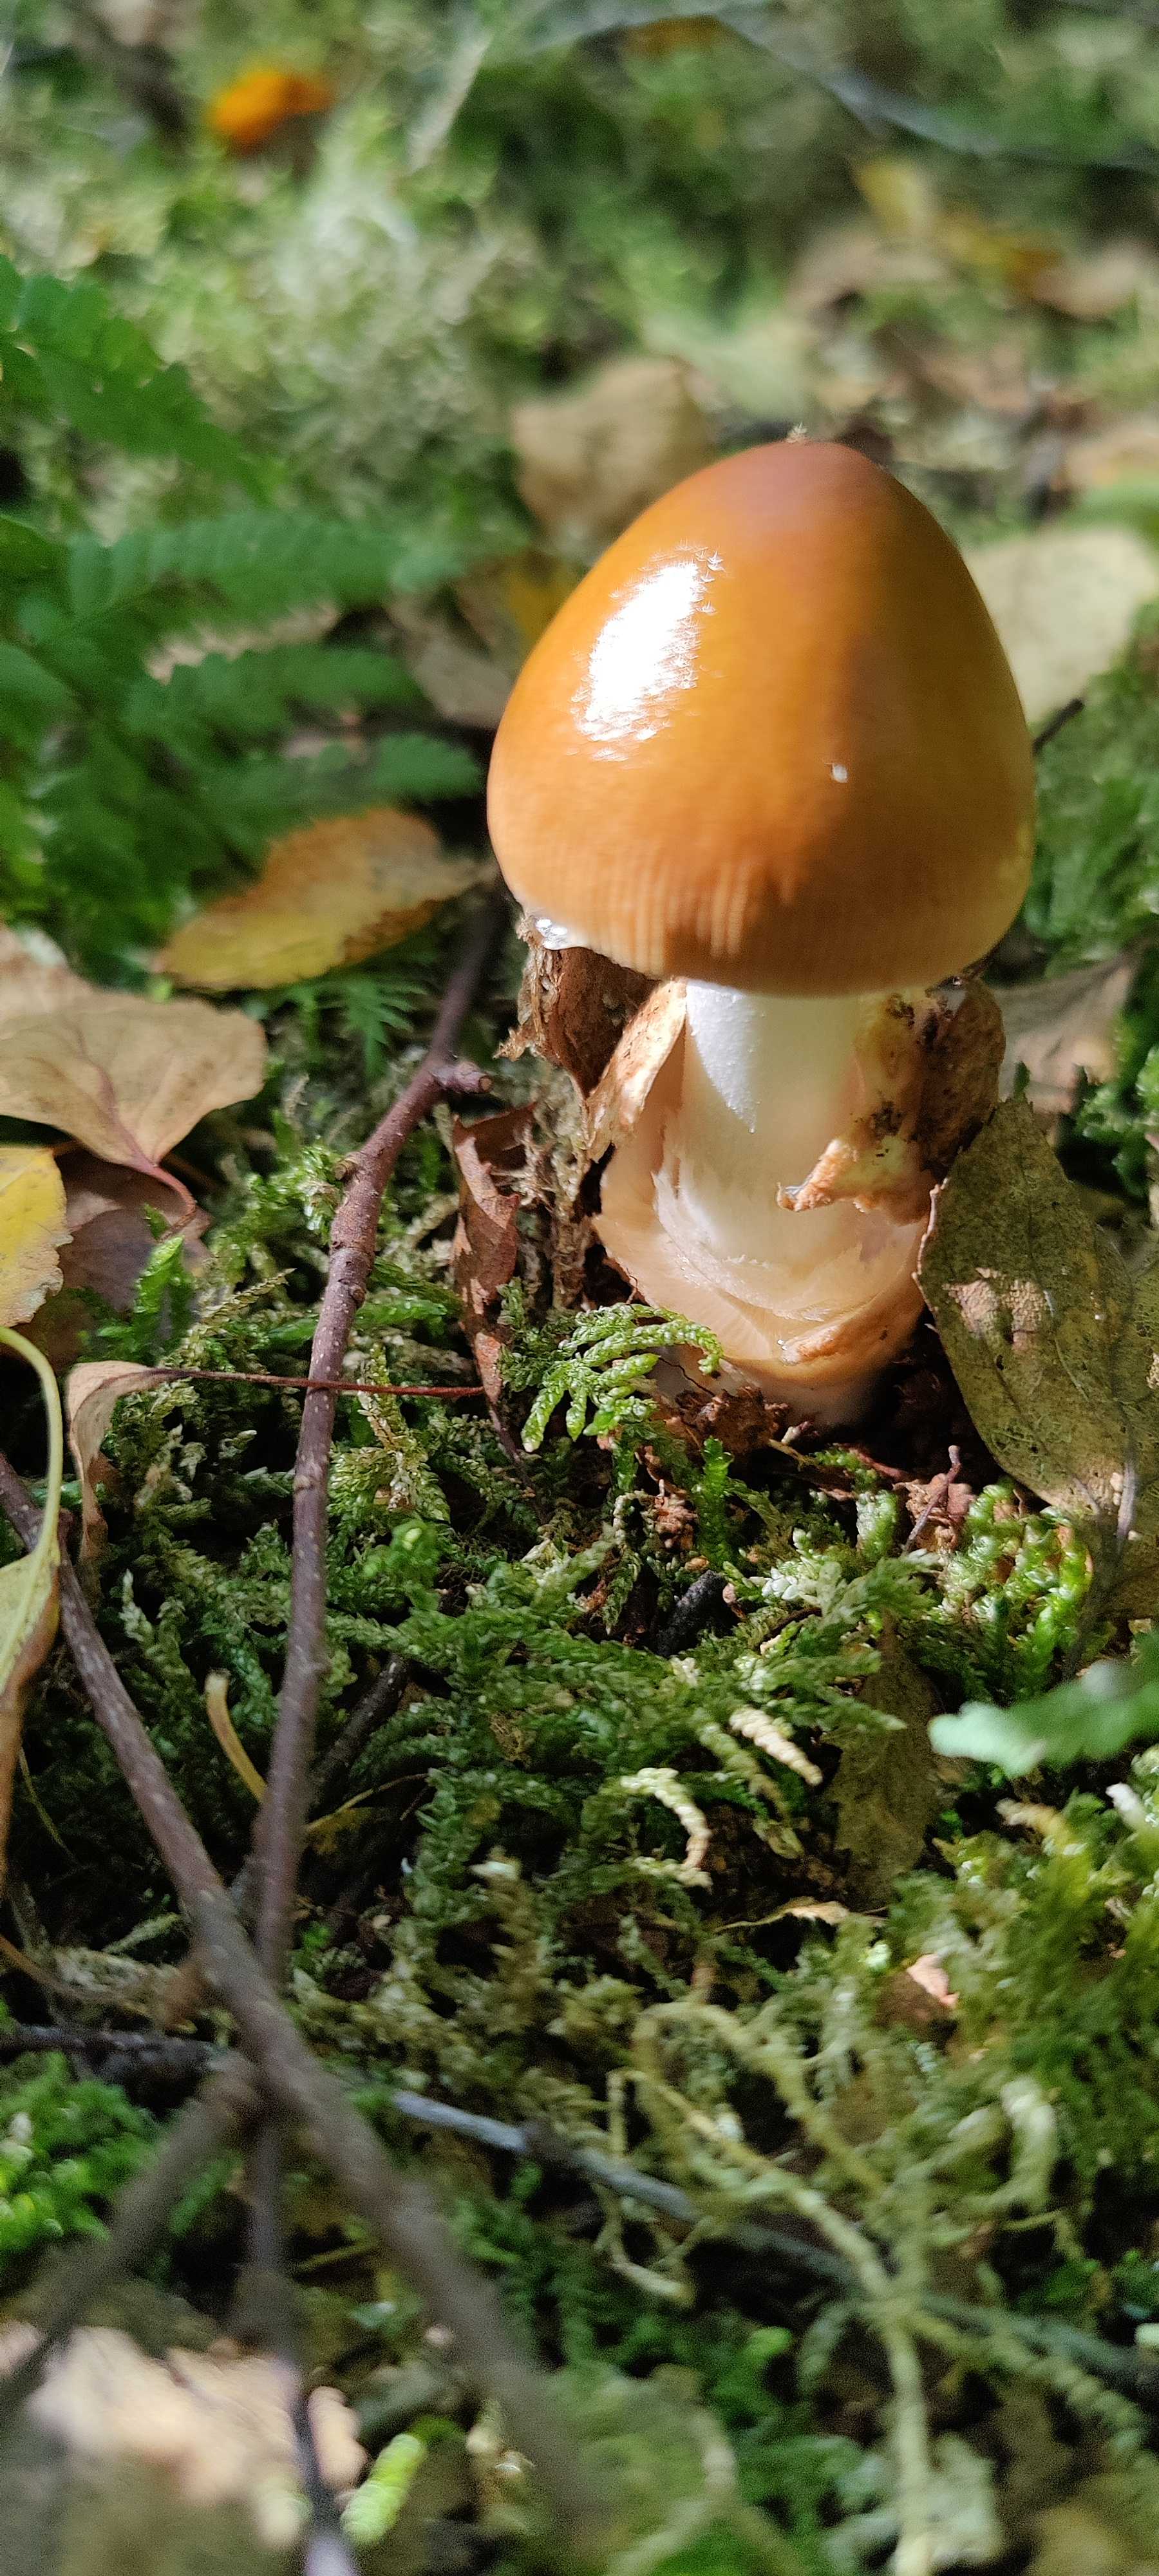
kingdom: Fungi
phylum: Basidiomycota
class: Agaricomycetes
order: Agaricales
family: Amanitaceae
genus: Amanita
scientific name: Amanita fulva
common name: brun kam-fluesvamp
